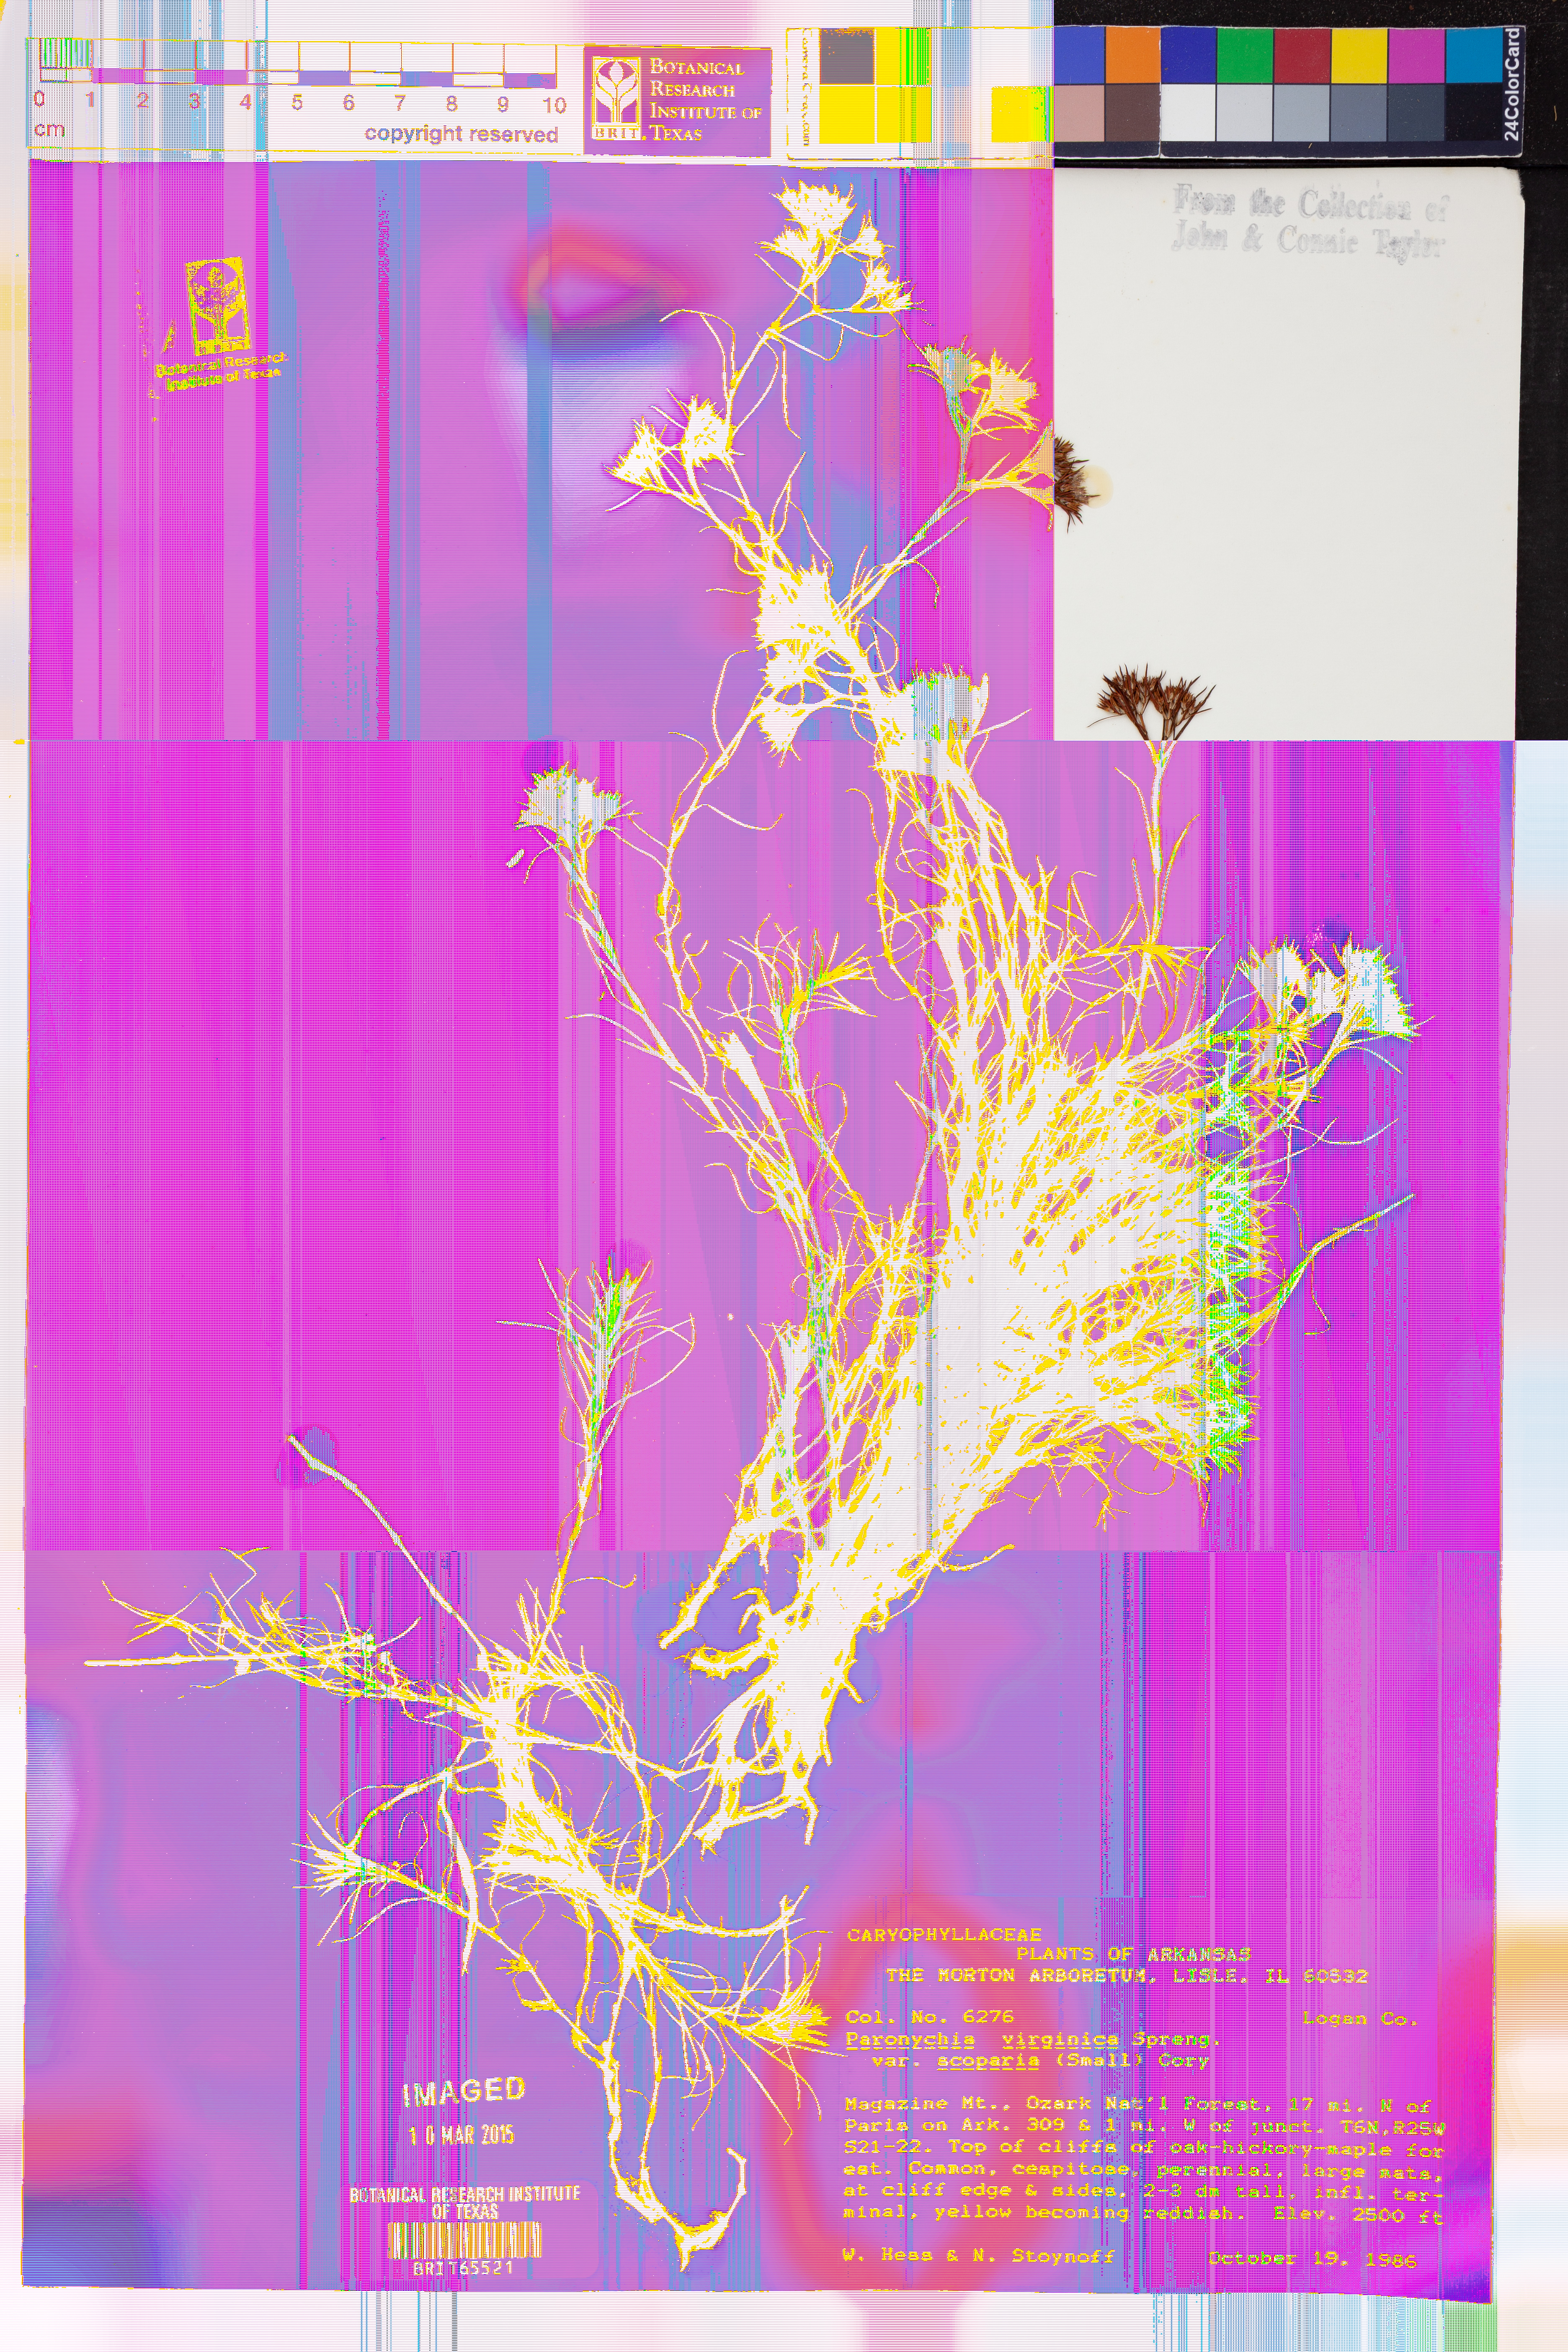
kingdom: Plantae
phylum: Tracheophyta
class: Magnoliopsida
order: Caryophyllales
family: Caryophyllaceae
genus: Paronychia
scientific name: Paronychia virginica
